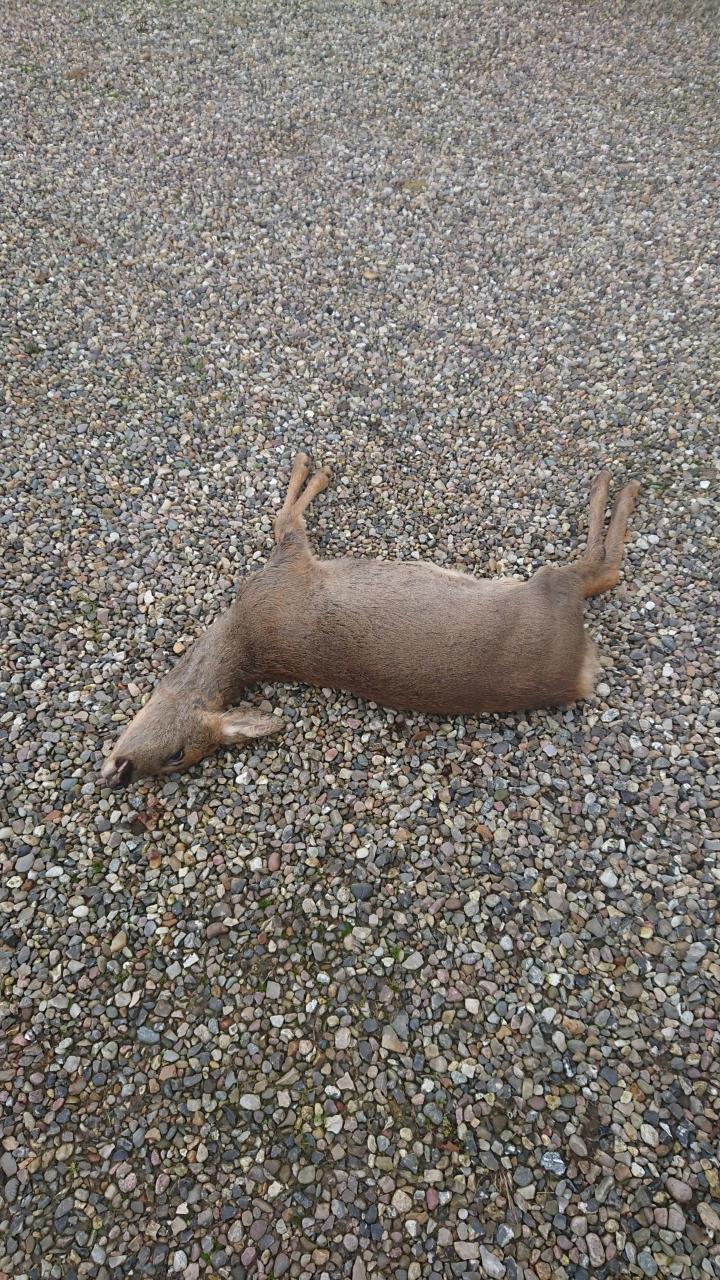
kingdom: Animalia
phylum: Chordata
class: Mammalia
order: Artiodactyla
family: Cervidae
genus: Capreolus
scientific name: Capreolus capreolus
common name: Western roe deer
